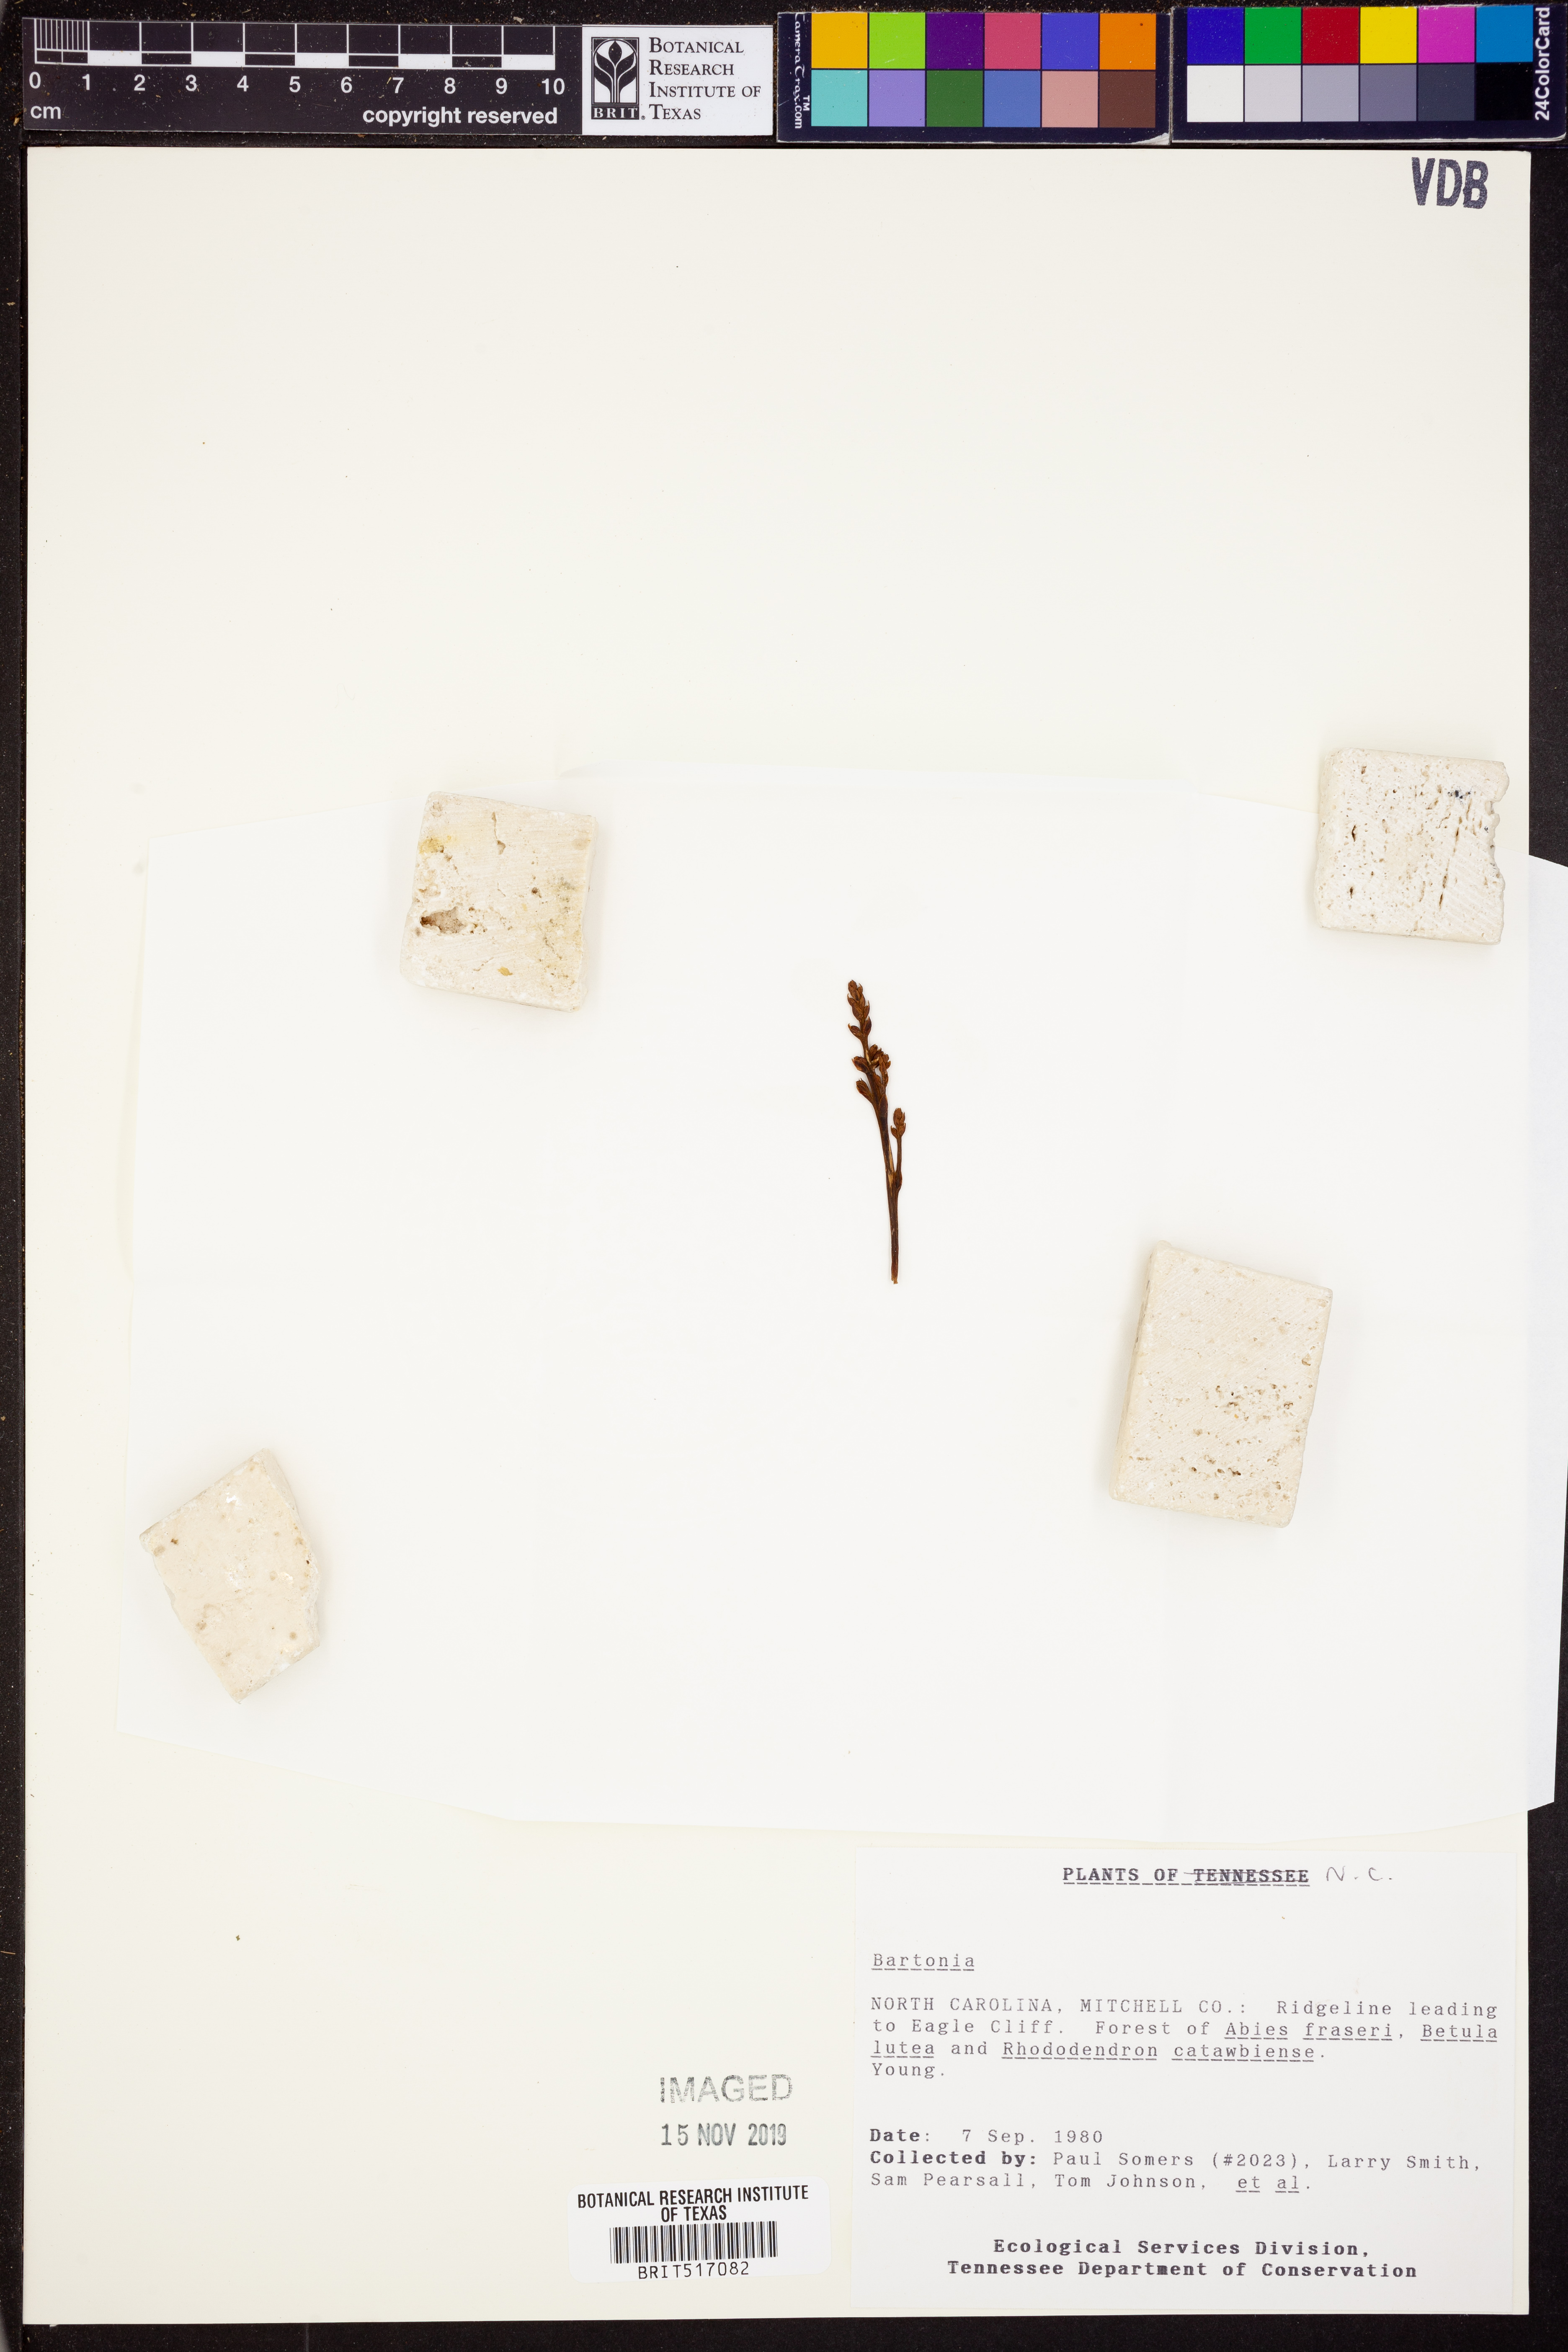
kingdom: Plantae
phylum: Tracheophyta
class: Magnoliopsida
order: Gentianales
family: Gentianaceae
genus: Bartonia
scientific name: Bartonia
